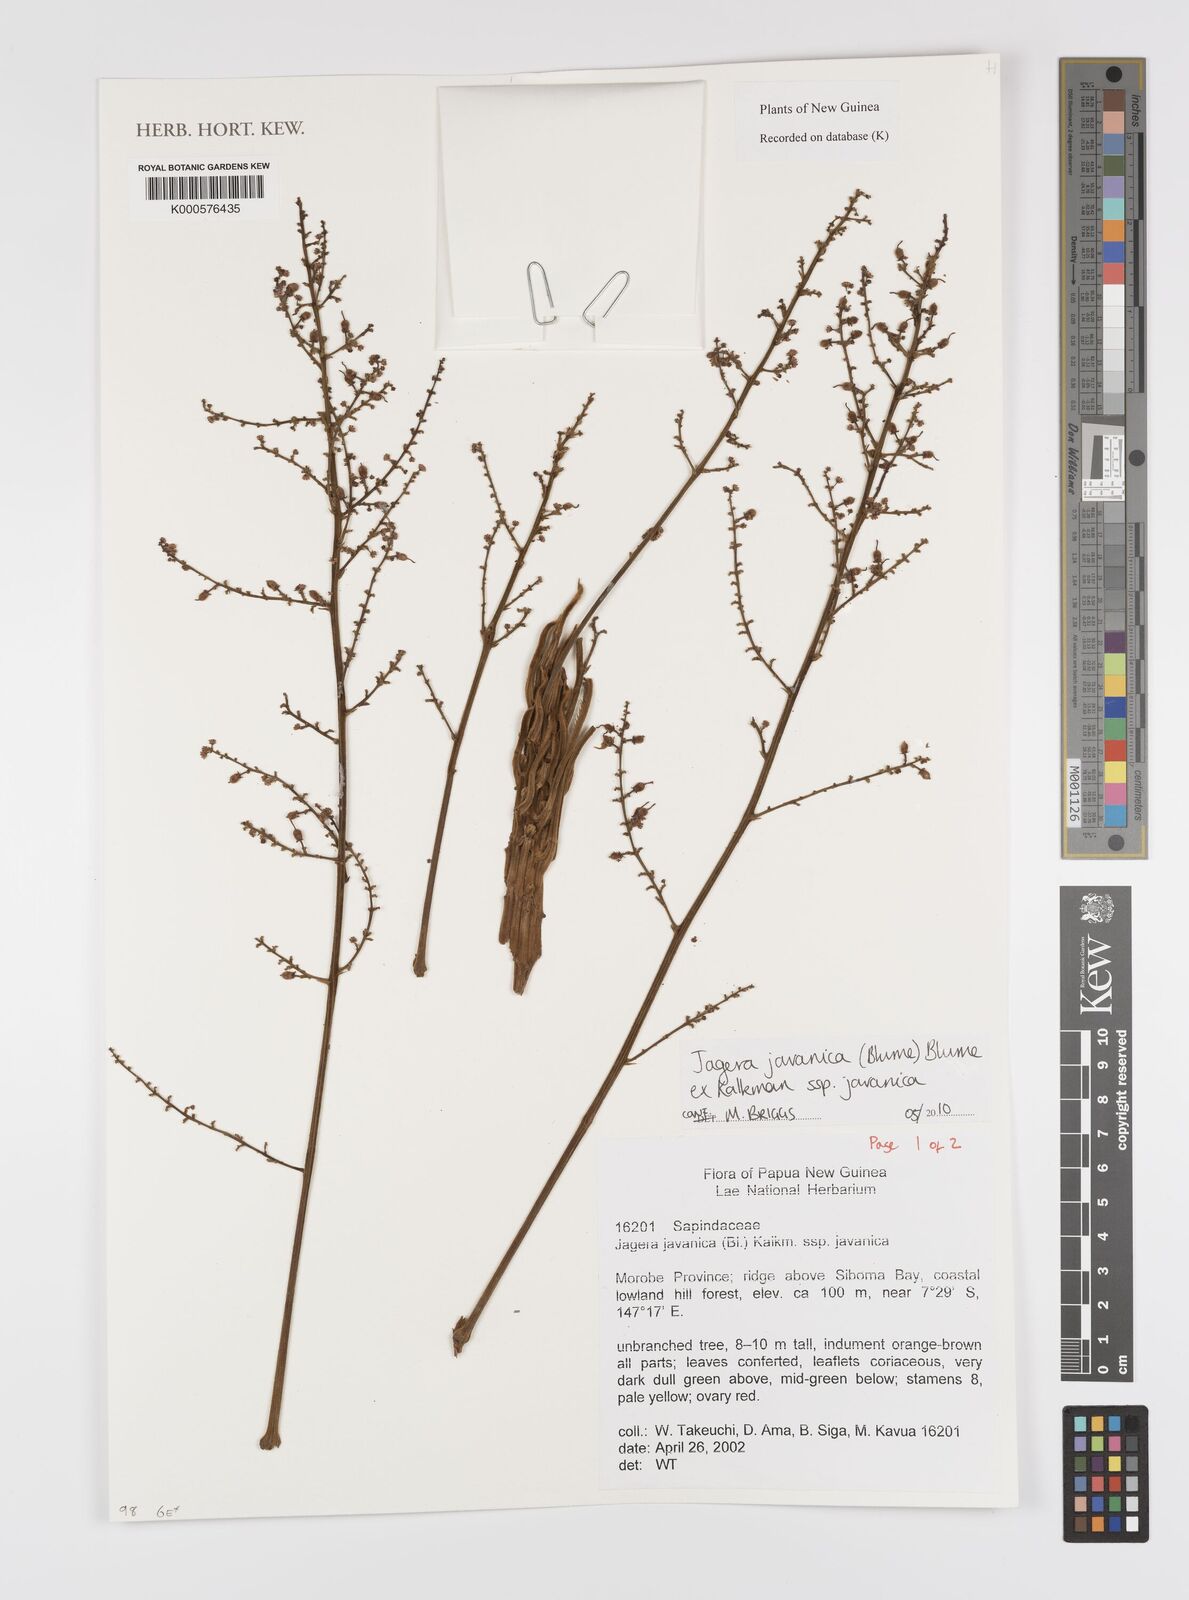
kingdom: Plantae
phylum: Tracheophyta
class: Magnoliopsida
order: Sapindales
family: Sapindaceae
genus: Jagera
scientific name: Jagera javanica
